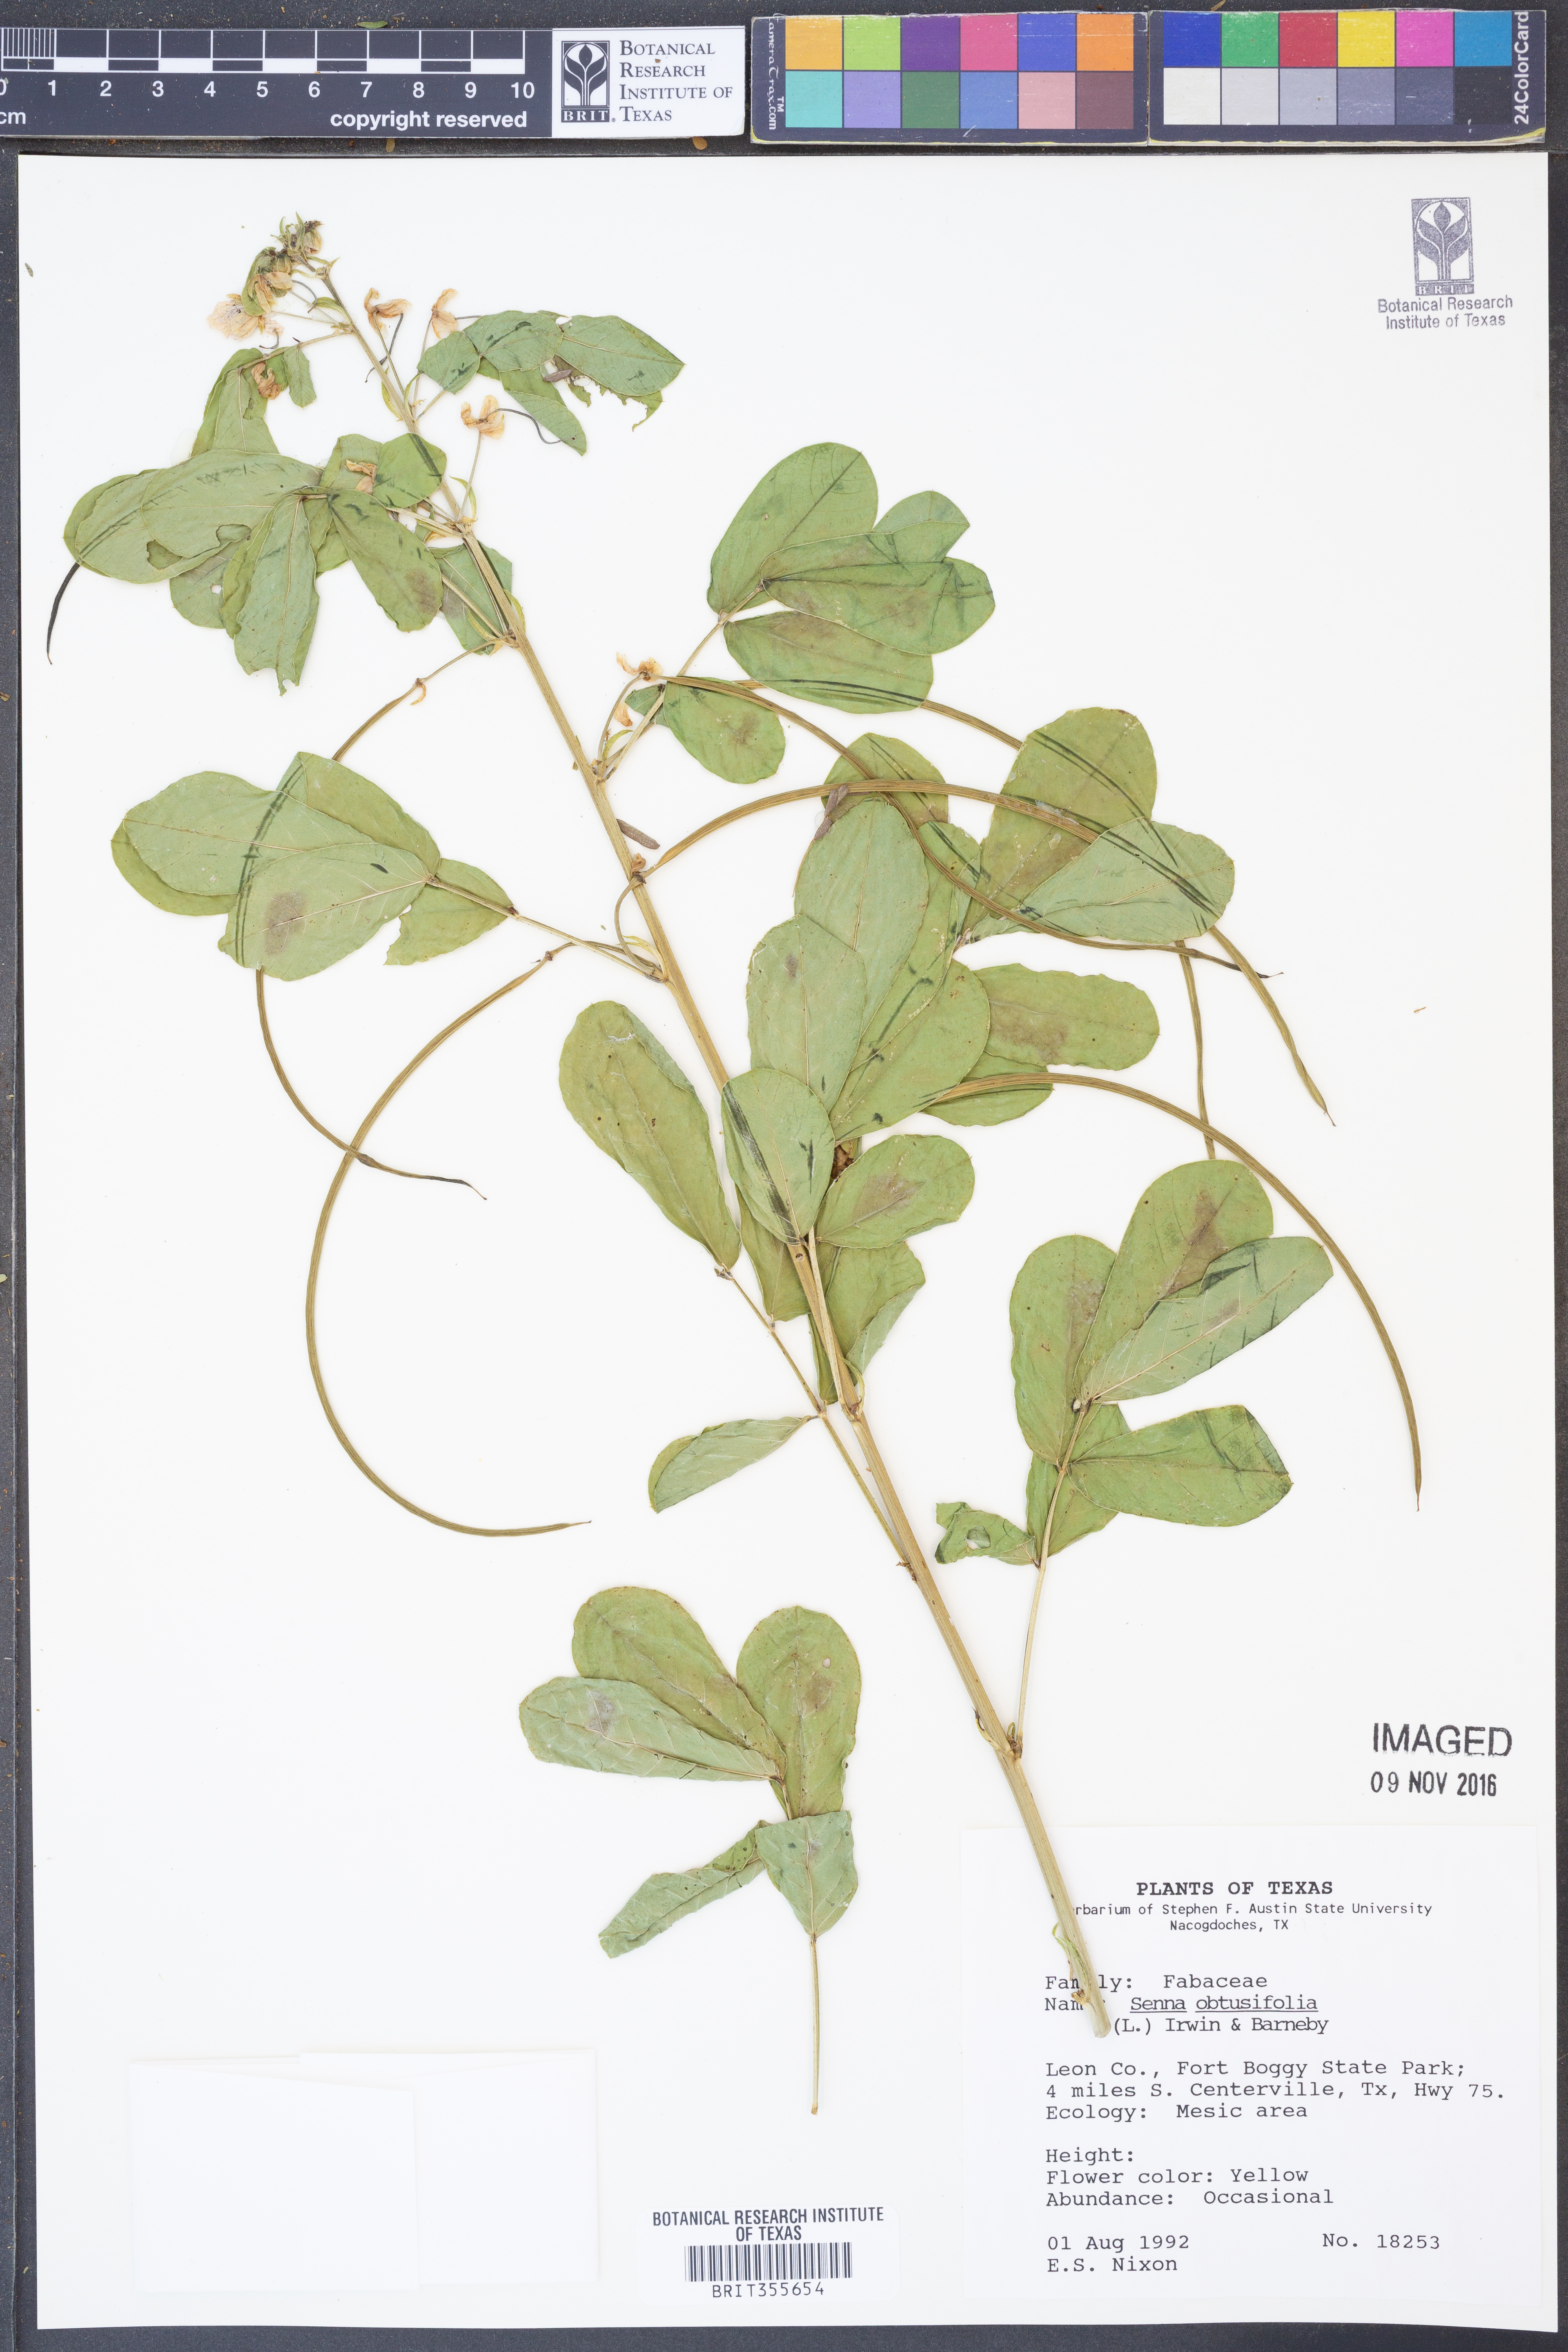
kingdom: Plantae
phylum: Tracheophyta
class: Magnoliopsida
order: Fabales
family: Fabaceae
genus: Senna
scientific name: Senna obtusifolia
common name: Java-bean
